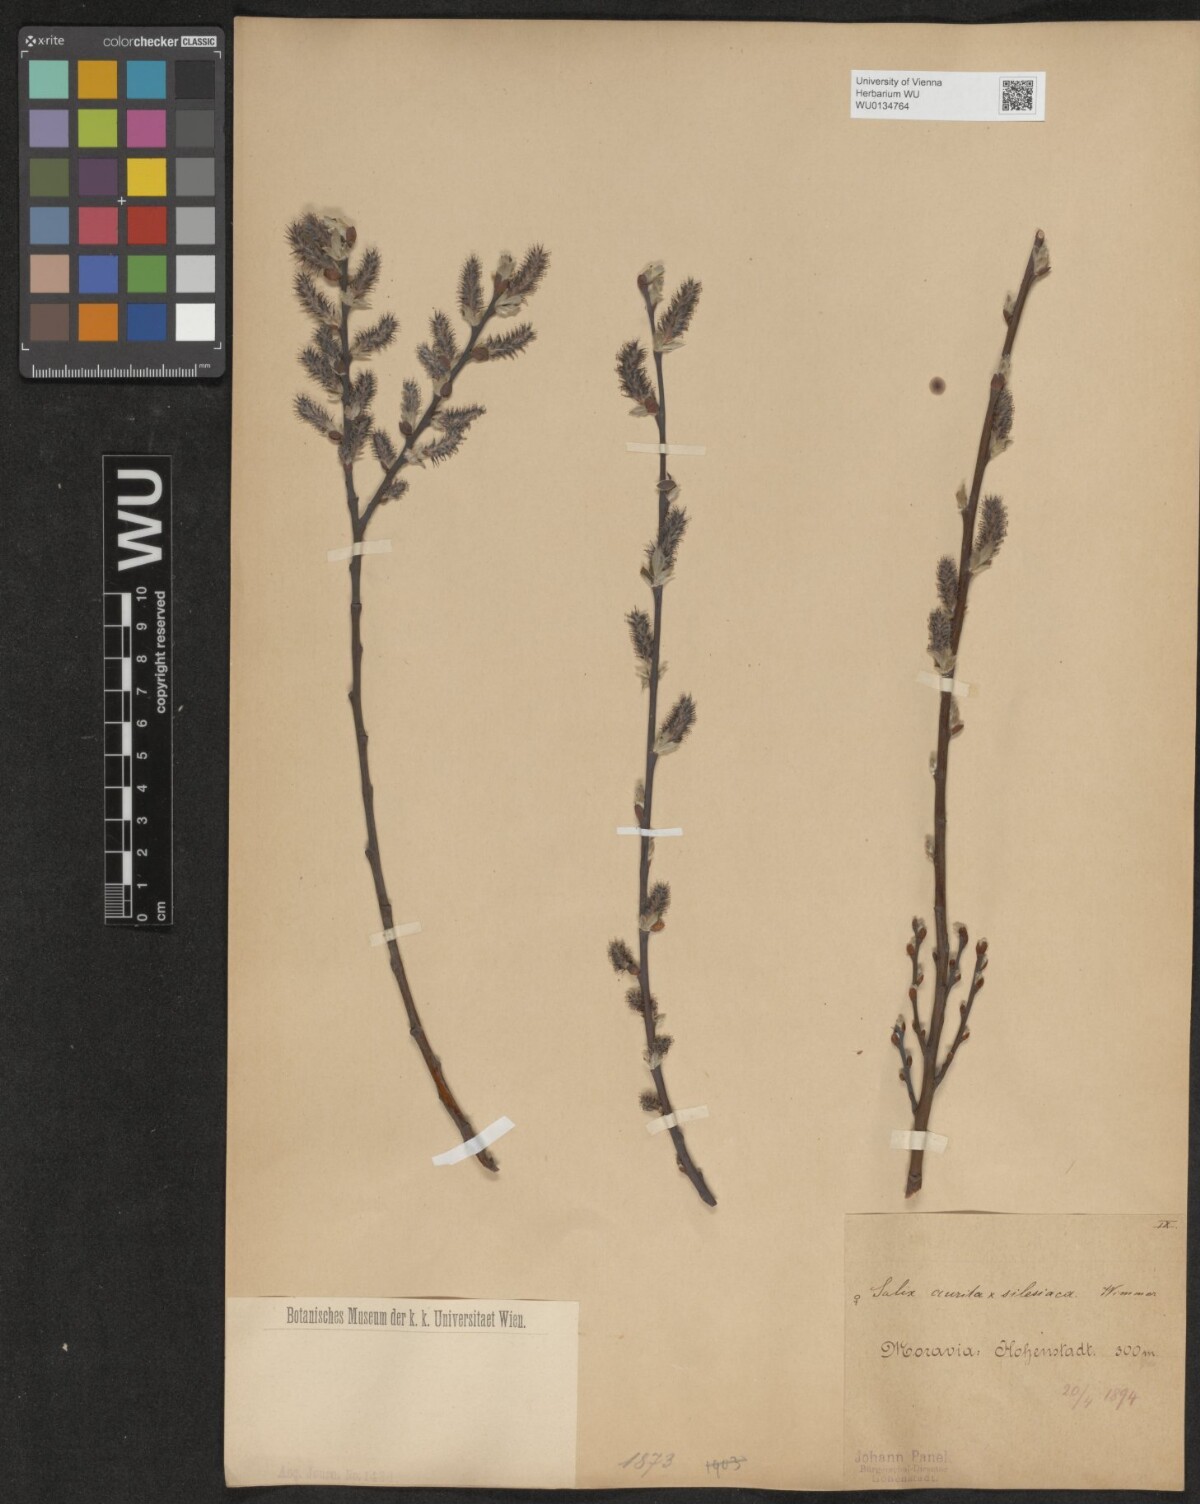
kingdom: Plantae
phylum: Tracheophyta
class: Magnoliopsida
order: Malpighiales
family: Salicaceae
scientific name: Salicaceae
